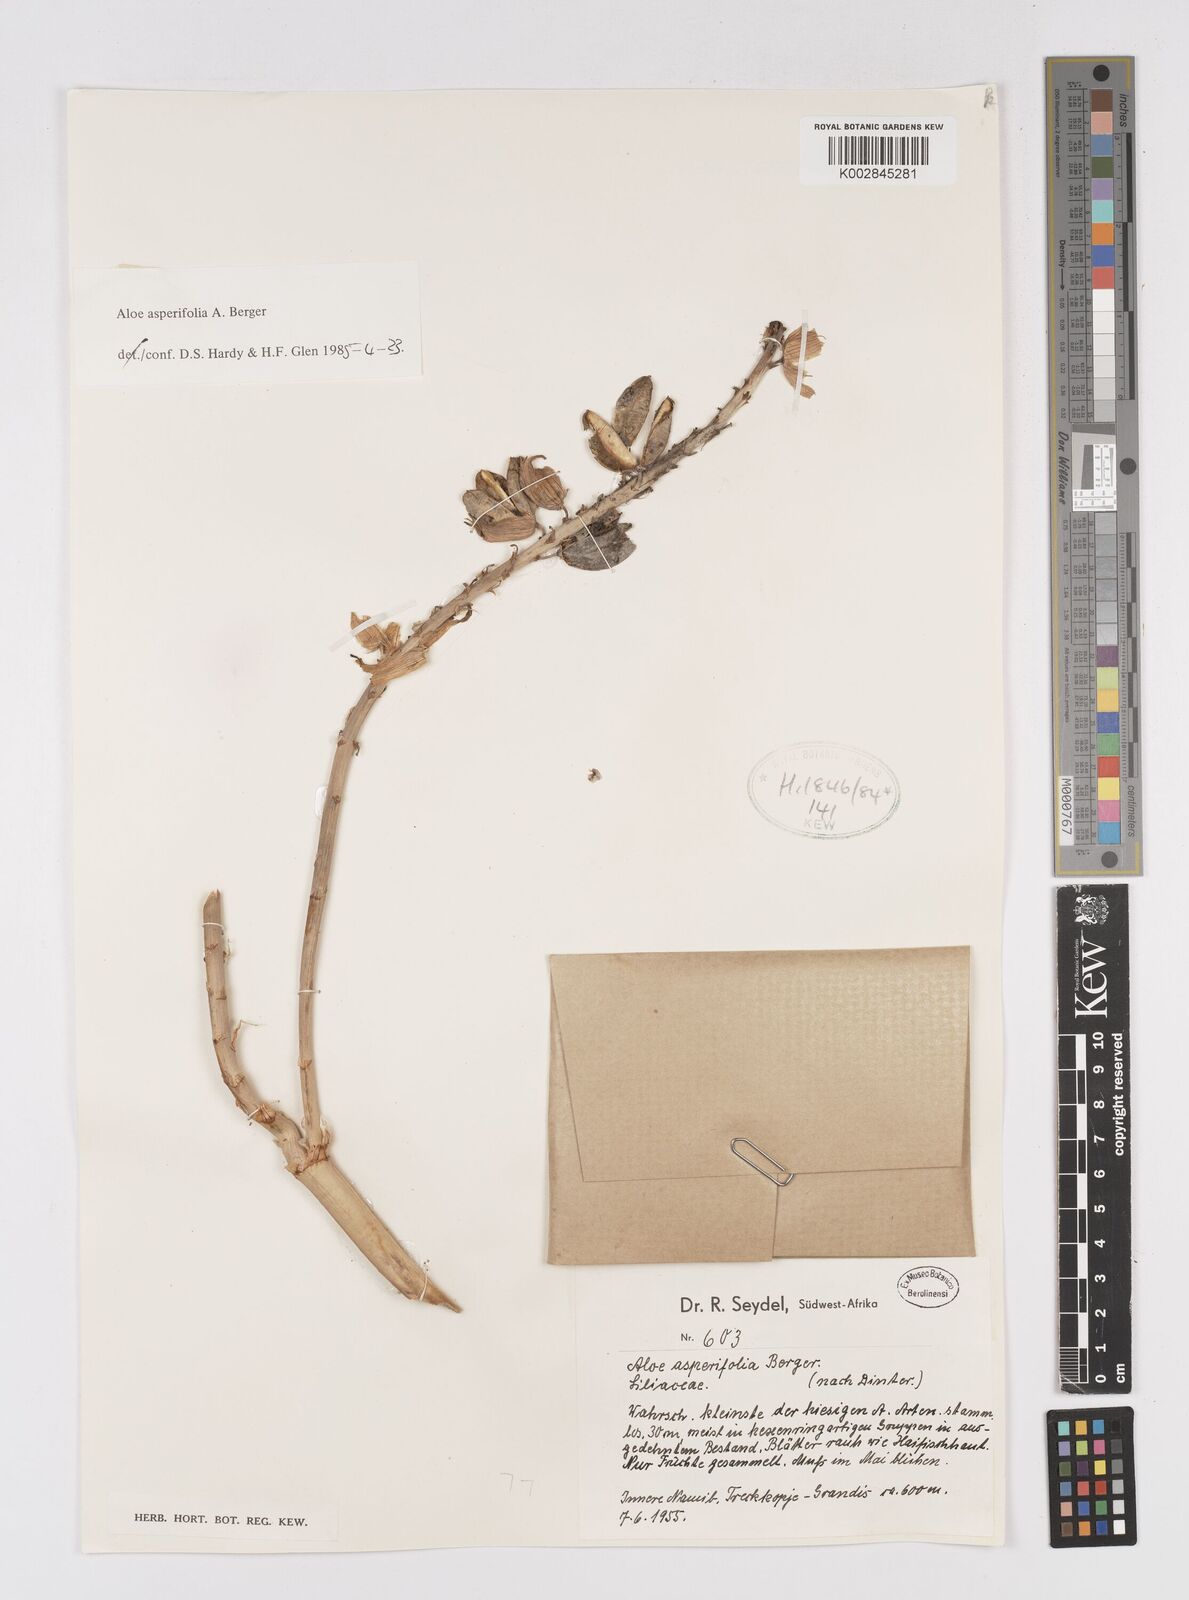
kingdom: Plantae
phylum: Tracheophyta
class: Liliopsida
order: Asparagales
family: Asphodelaceae
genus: Aloe
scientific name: Aloe asperifolia
